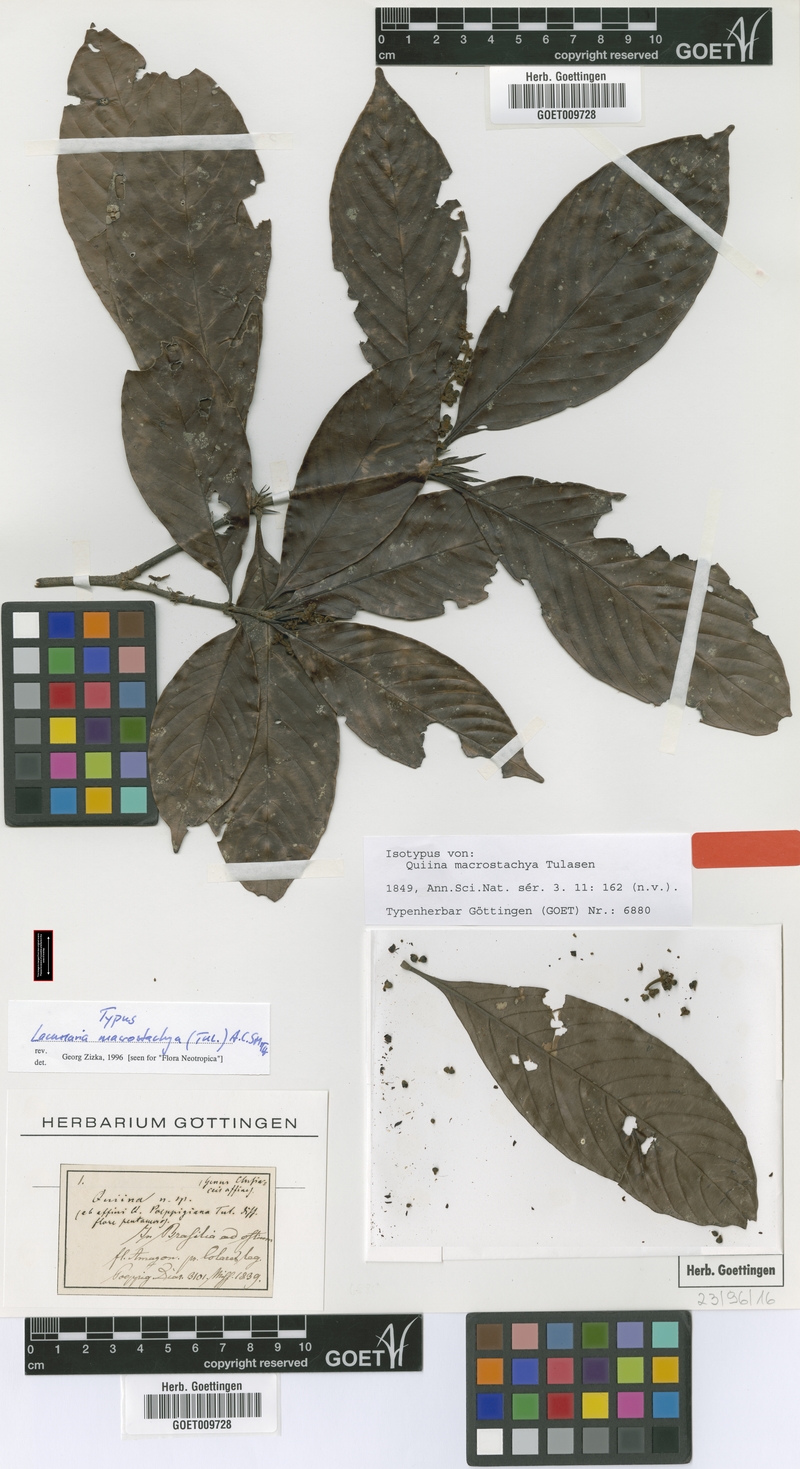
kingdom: Plantae
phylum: Tracheophyta
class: Magnoliopsida
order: Malpighiales
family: Quiinaceae
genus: Lacunaria
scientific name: Lacunaria macrostachya
